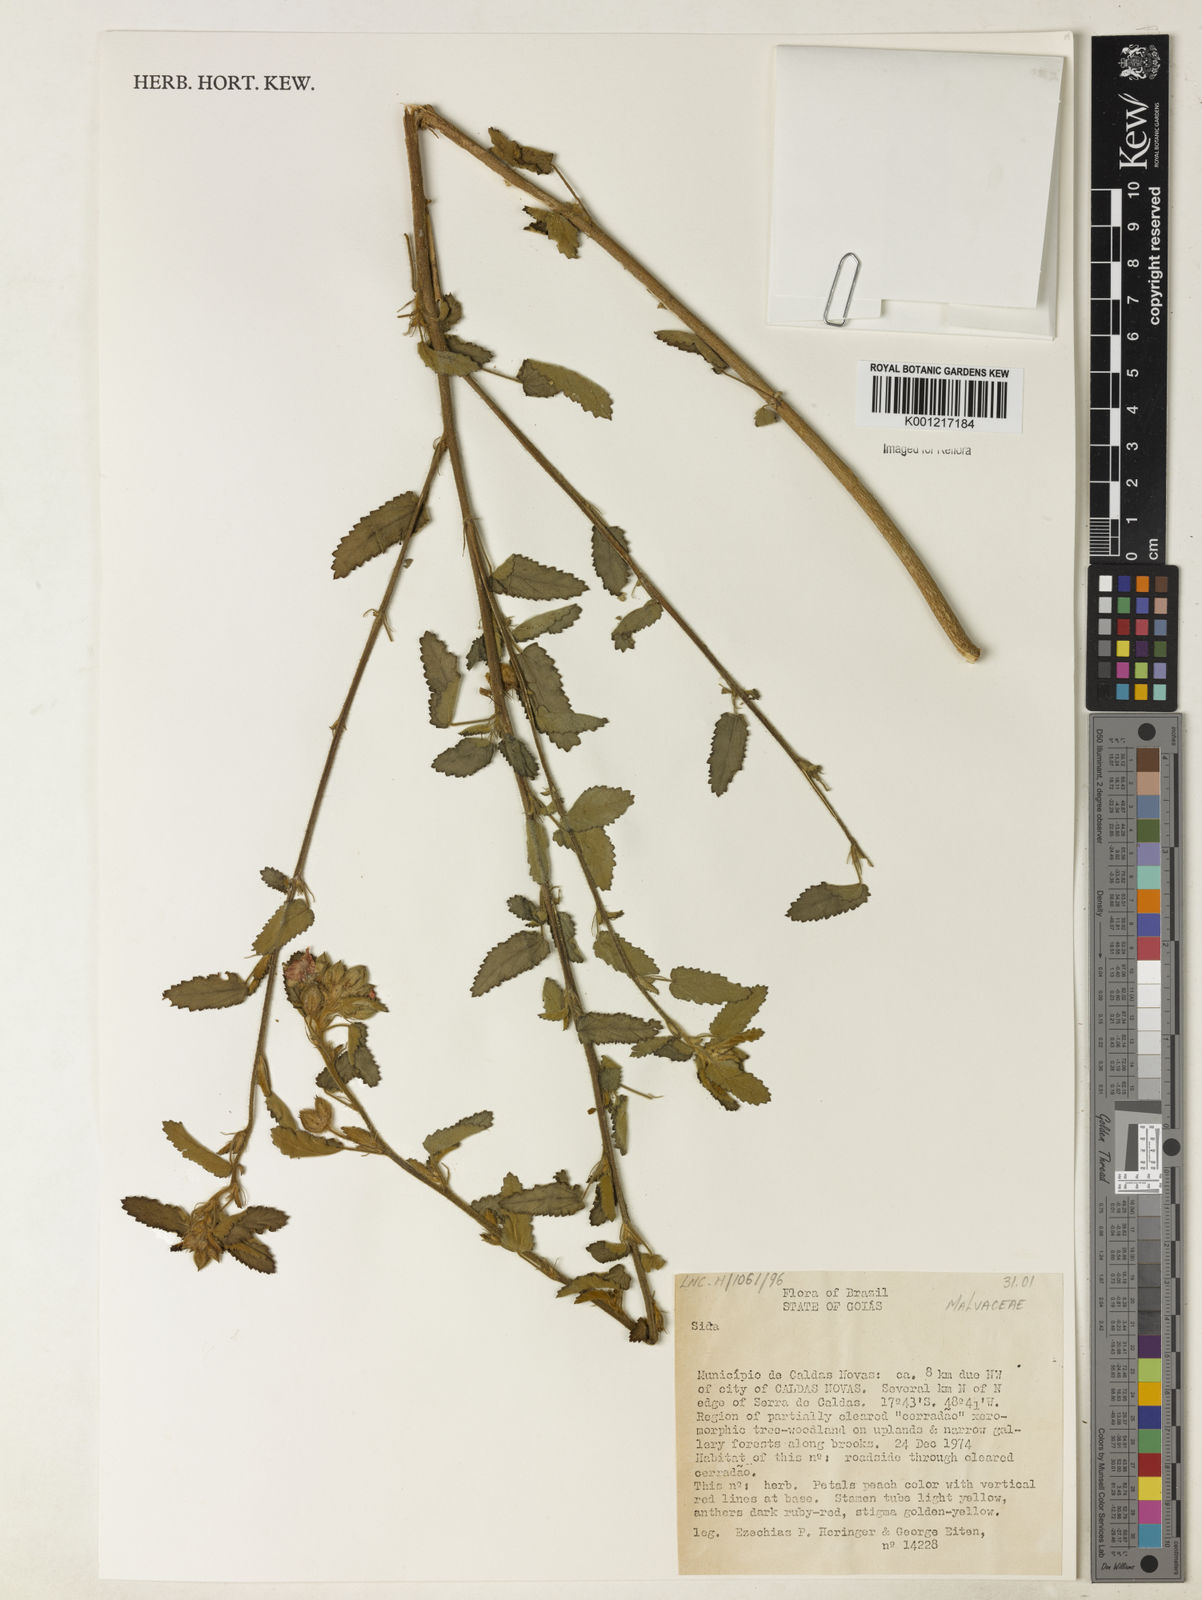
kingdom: Plantae
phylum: Tracheophyta
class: Magnoliopsida
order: Malvales
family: Malvaceae
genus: Sida
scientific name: Sida
